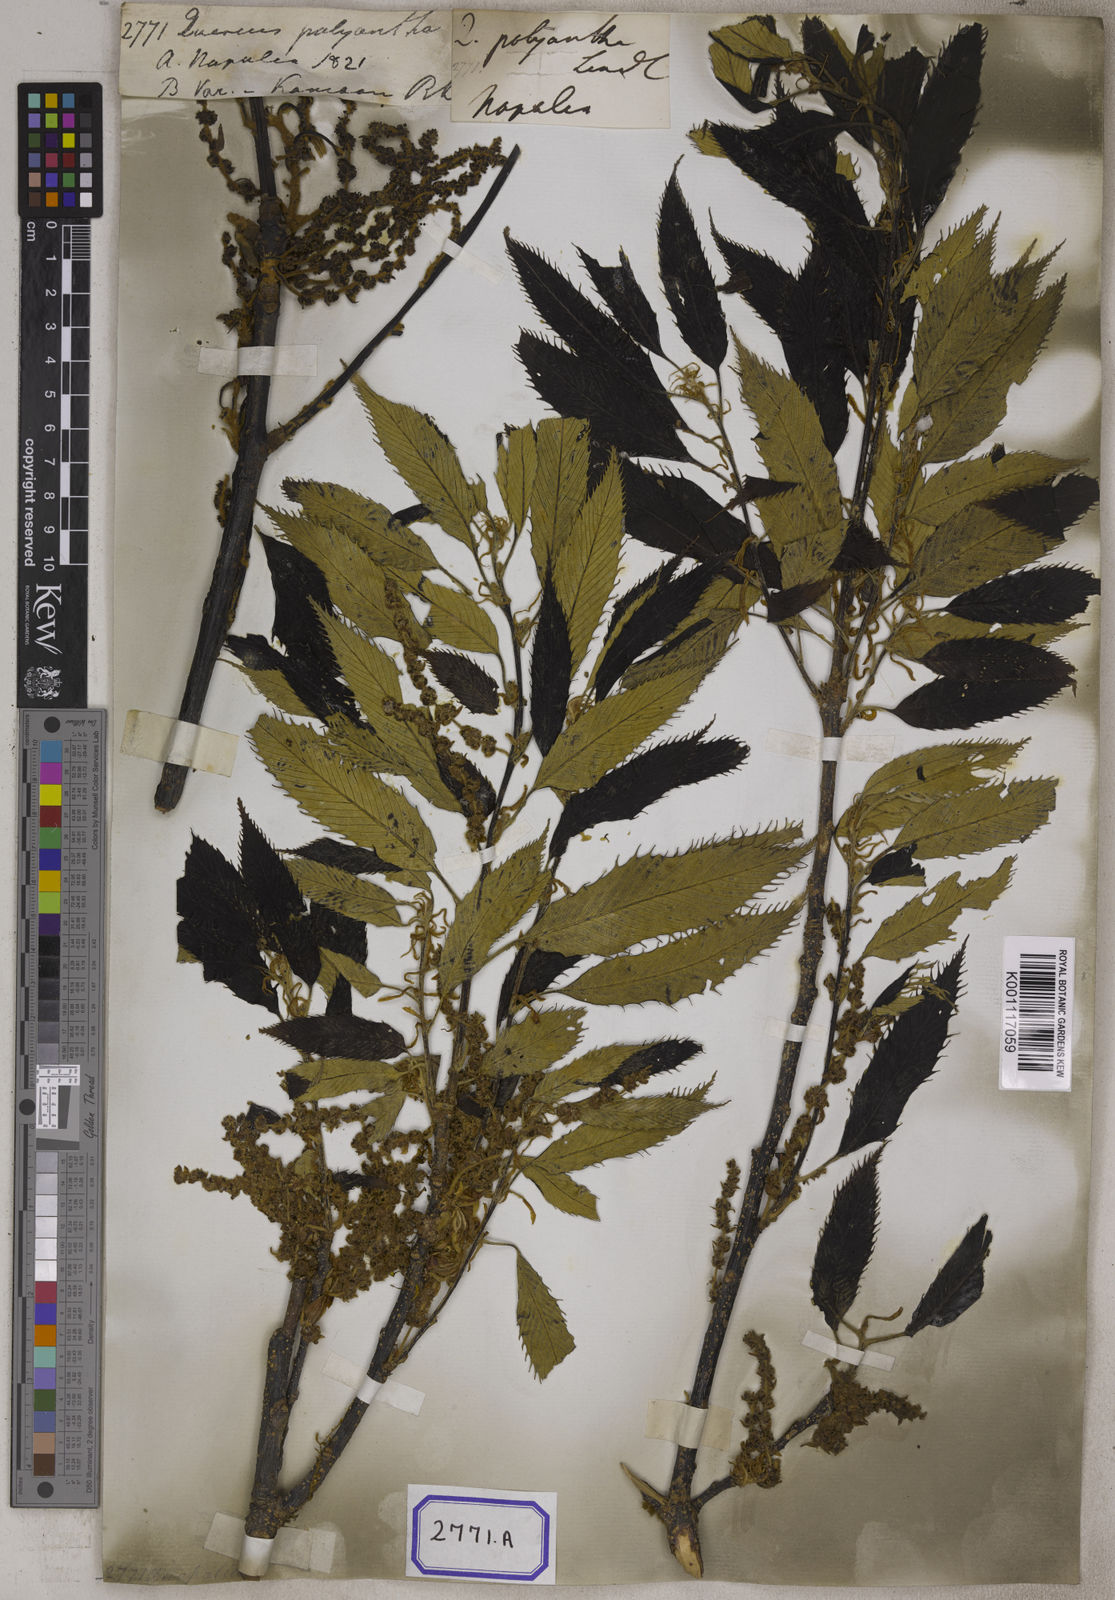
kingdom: Plantae
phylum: Tracheophyta
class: Magnoliopsida
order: Fagales
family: Fagaceae
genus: Quercus
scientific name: Quercus
